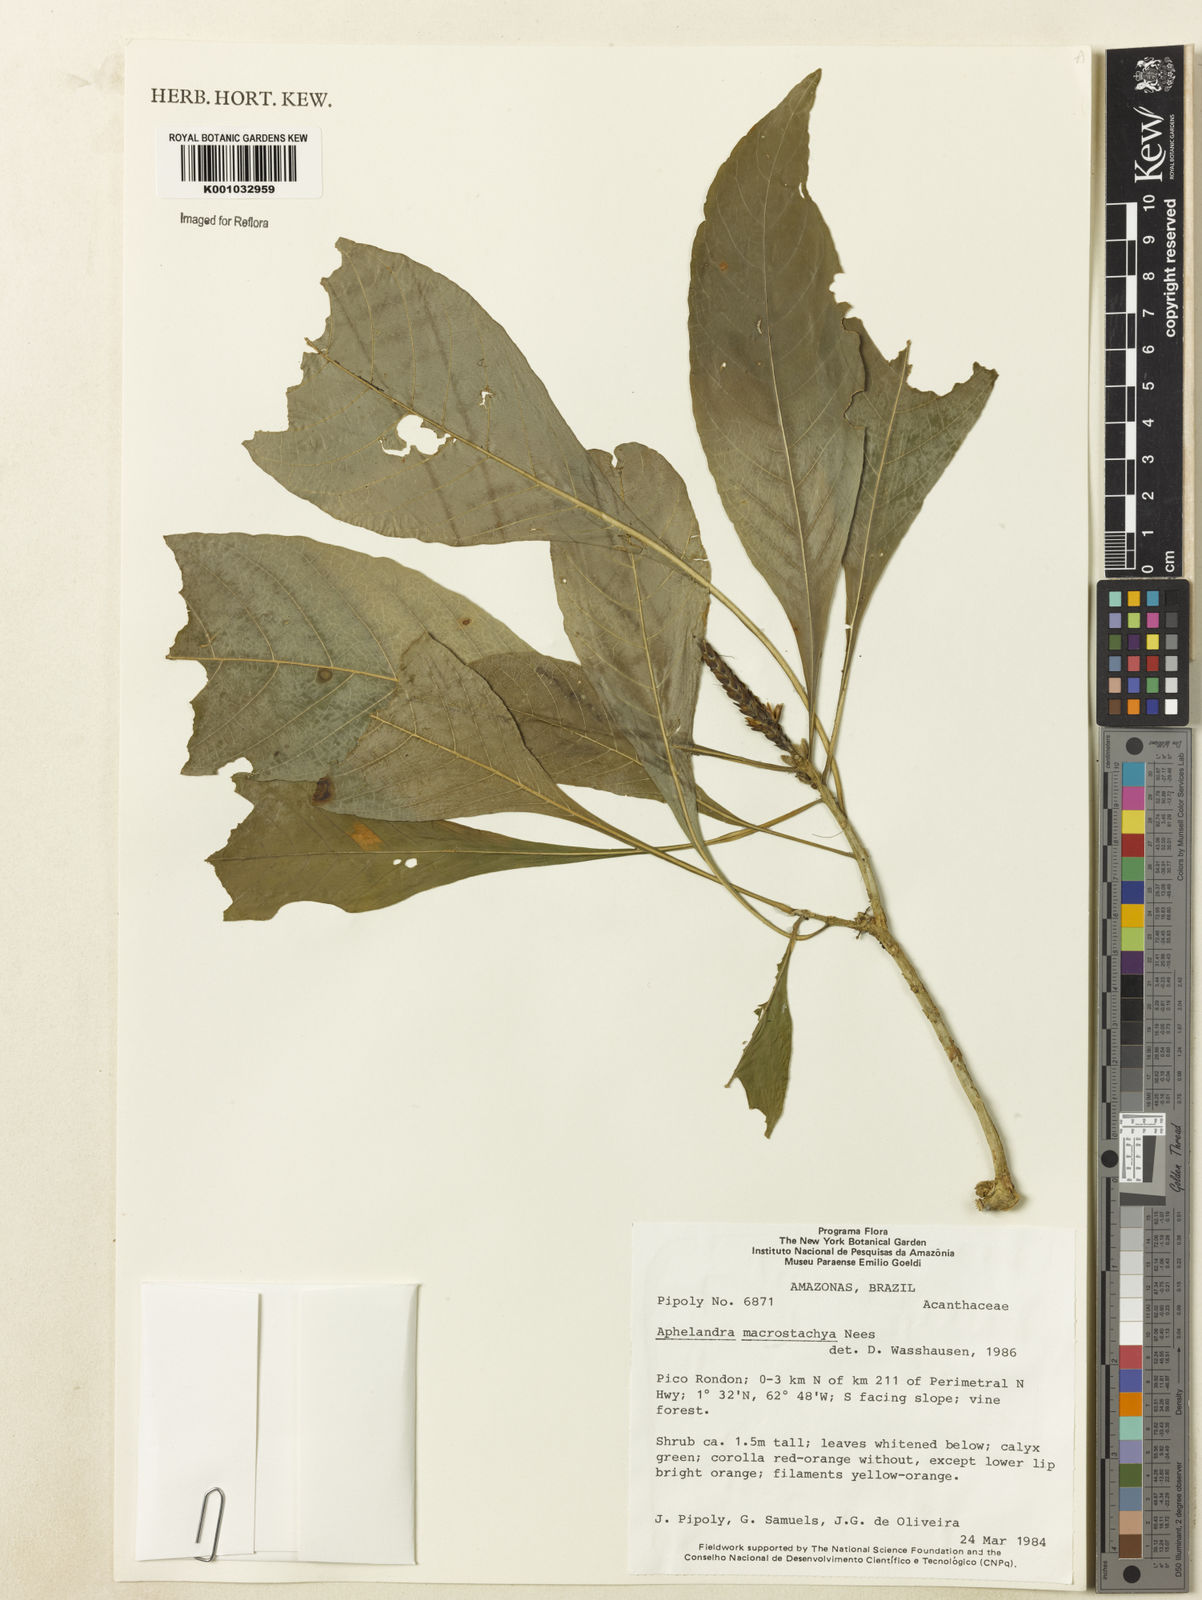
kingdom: Plantae
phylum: Tracheophyta
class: Magnoliopsida
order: Lamiales
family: Acanthaceae
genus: Aphelandra
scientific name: Aphelandra macrostachya
